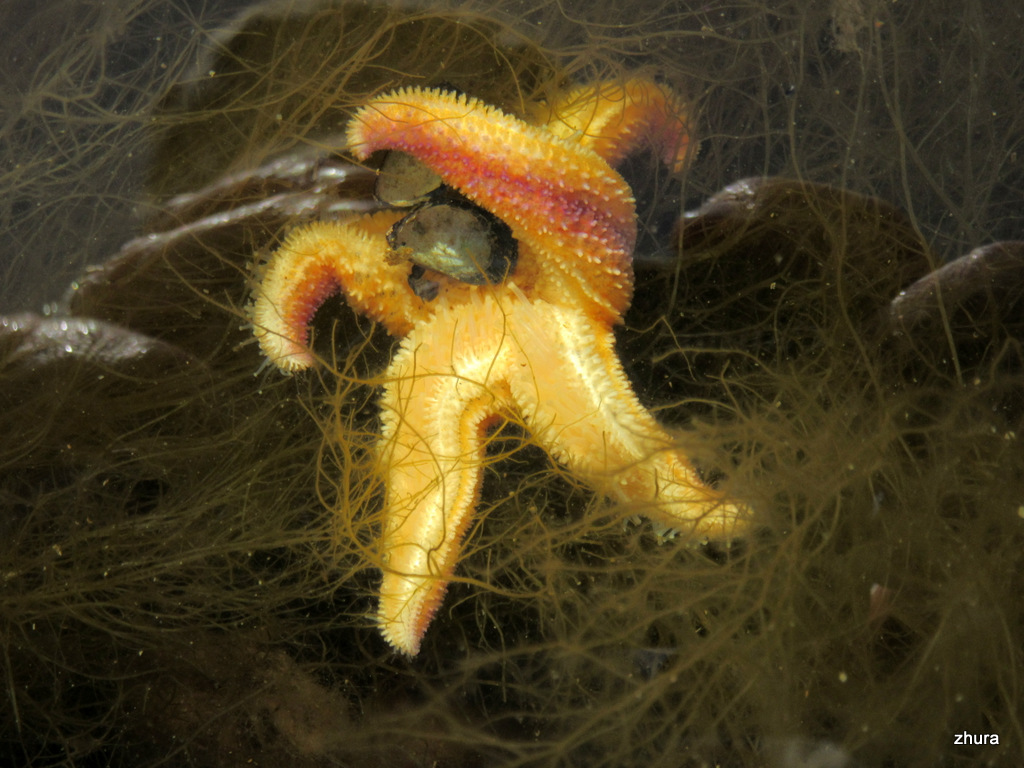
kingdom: Animalia
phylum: Echinodermata
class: Asteroidea
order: Forcipulatida
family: Asteriidae
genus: Asterias
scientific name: Asterias rubens
